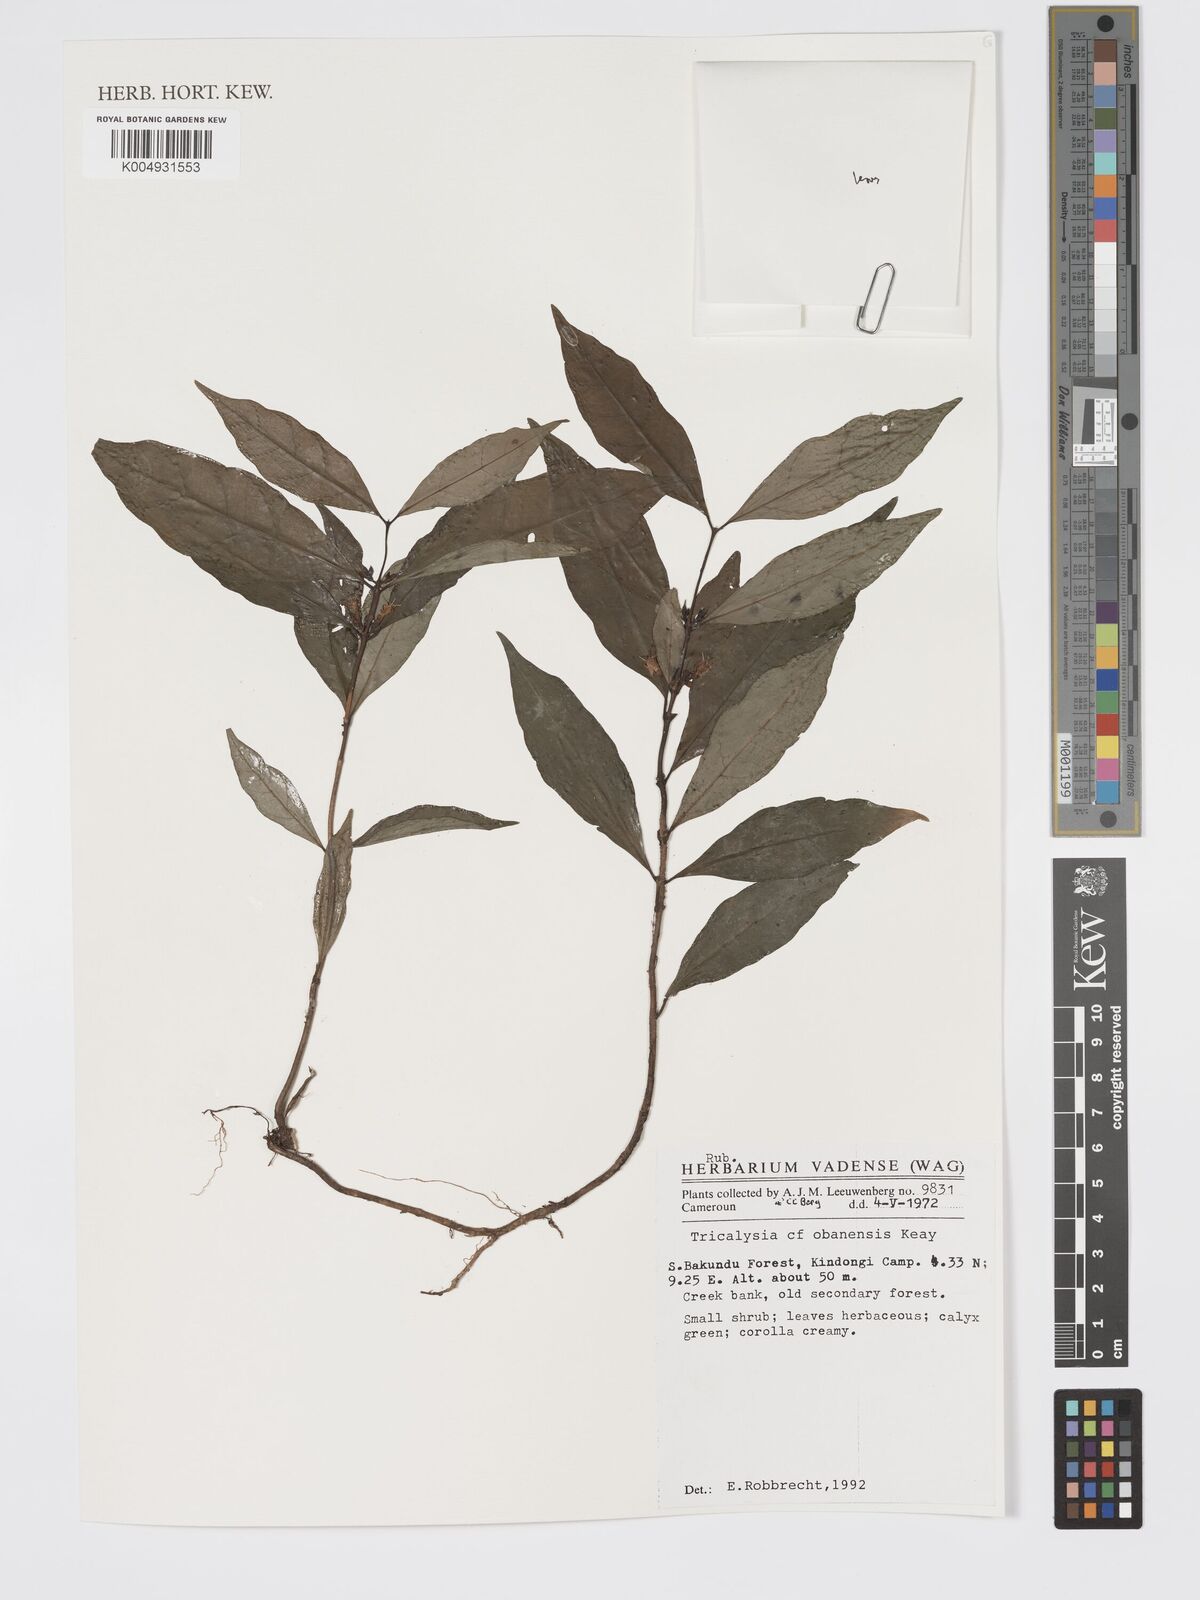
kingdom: Plantae
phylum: Tracheophyta
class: Magnoliopsida
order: Gentianales
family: Rubiaceae
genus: Tricalysia
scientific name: Tricalysia obanensis
